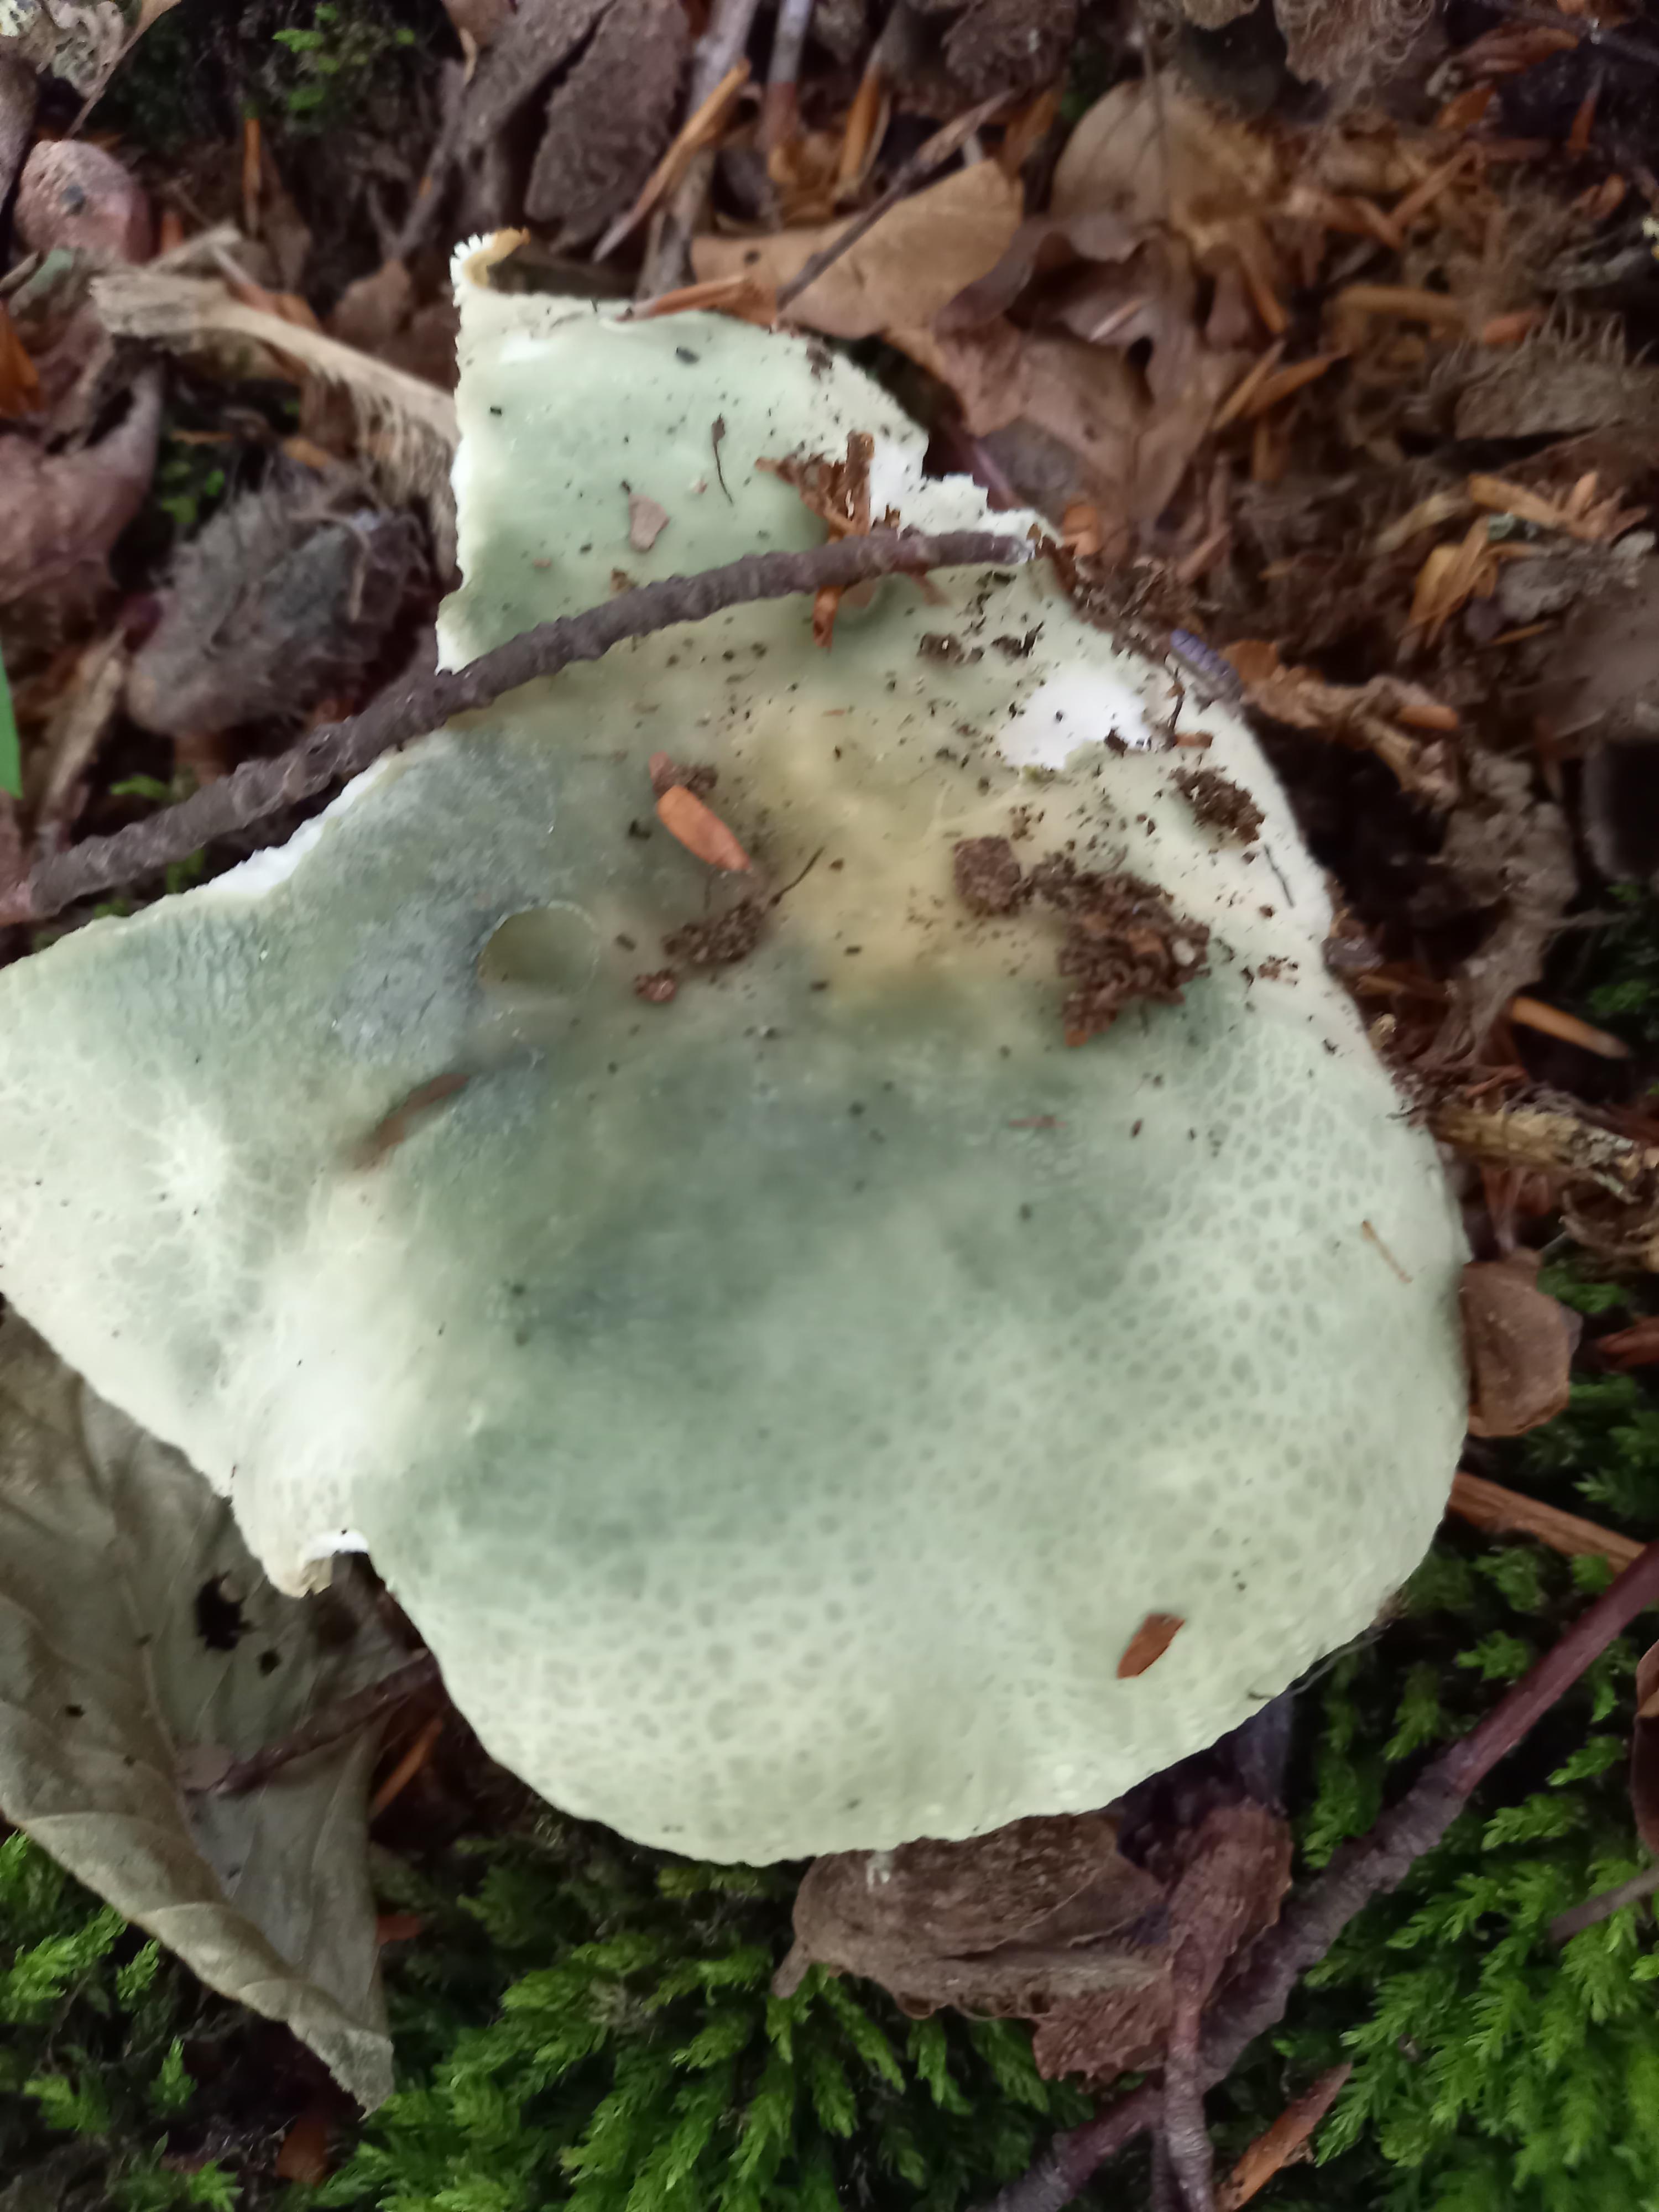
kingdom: Fungi
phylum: Basidiomycota
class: Agaricomycetes
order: Russulales
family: Russulaceae
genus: Russula
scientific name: Russula virescens
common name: spanskgrøn skørhat
